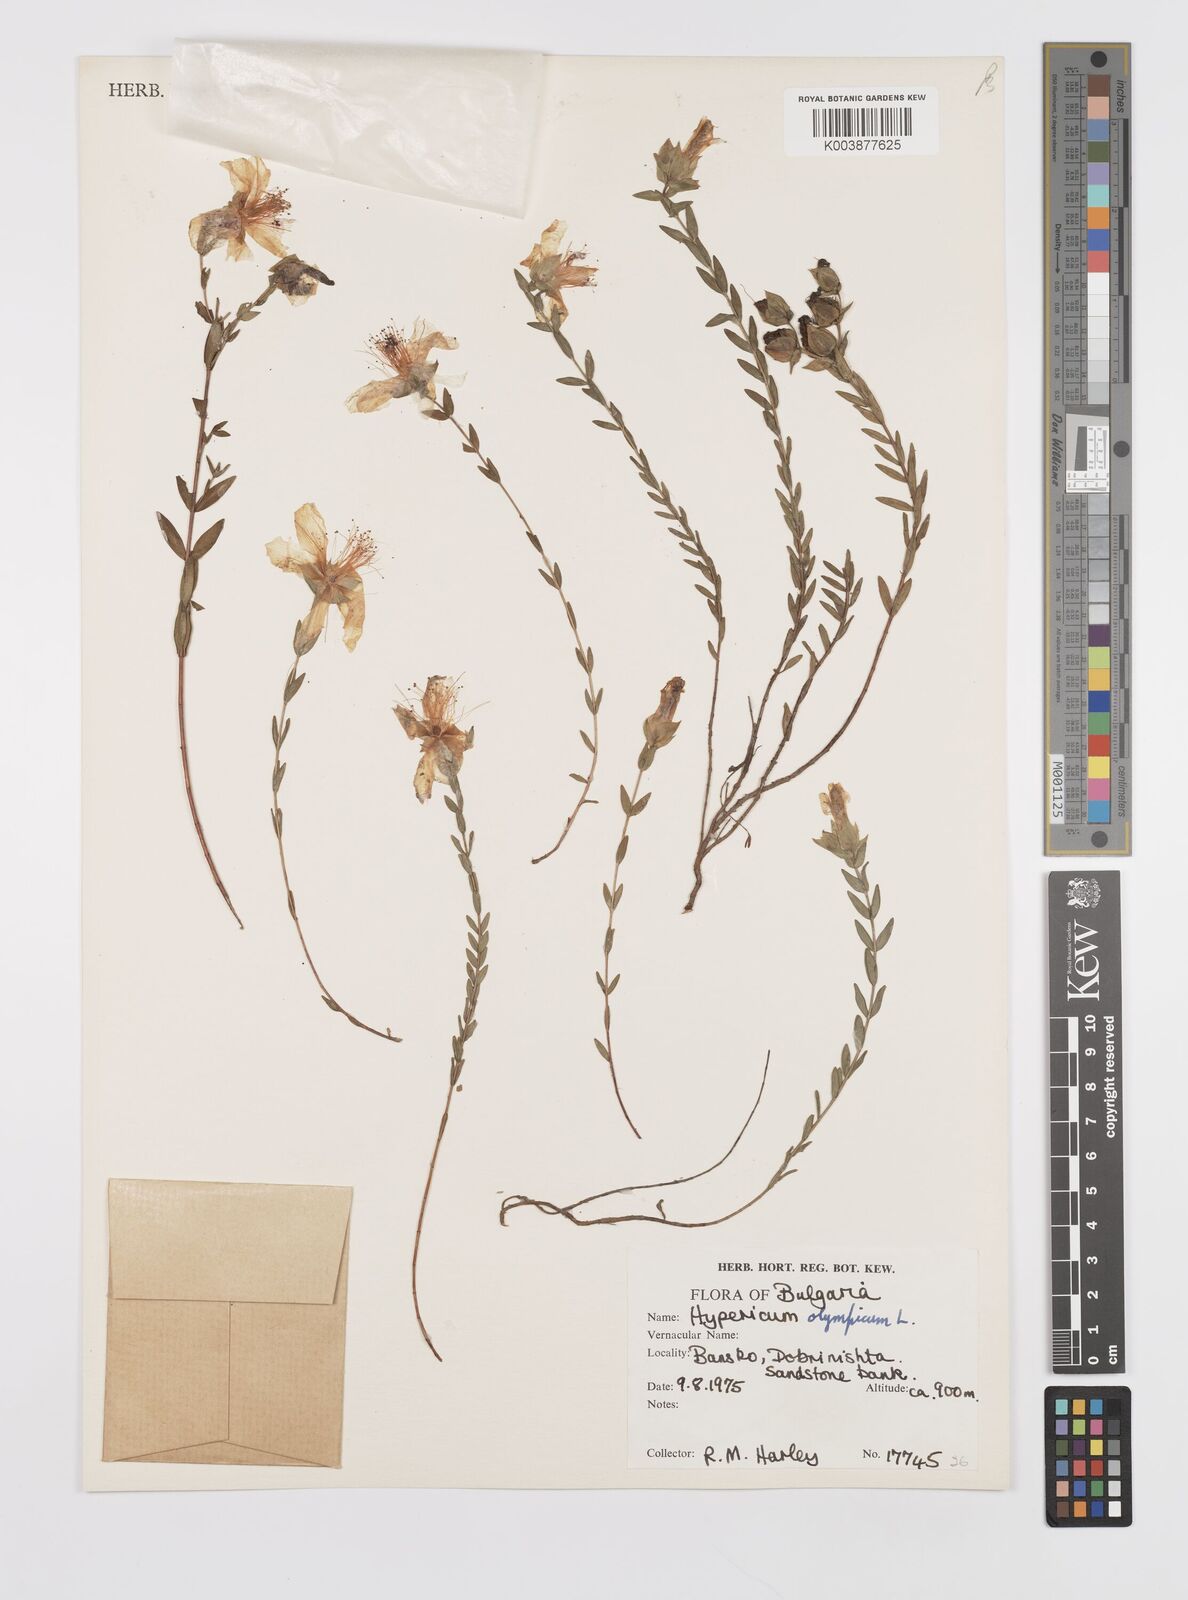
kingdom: Plantae
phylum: Tracheophyta
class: Magnoliopsida
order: Malpighiales
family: Hypericaceae
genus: Hypericum
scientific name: Hypericum olympicum
